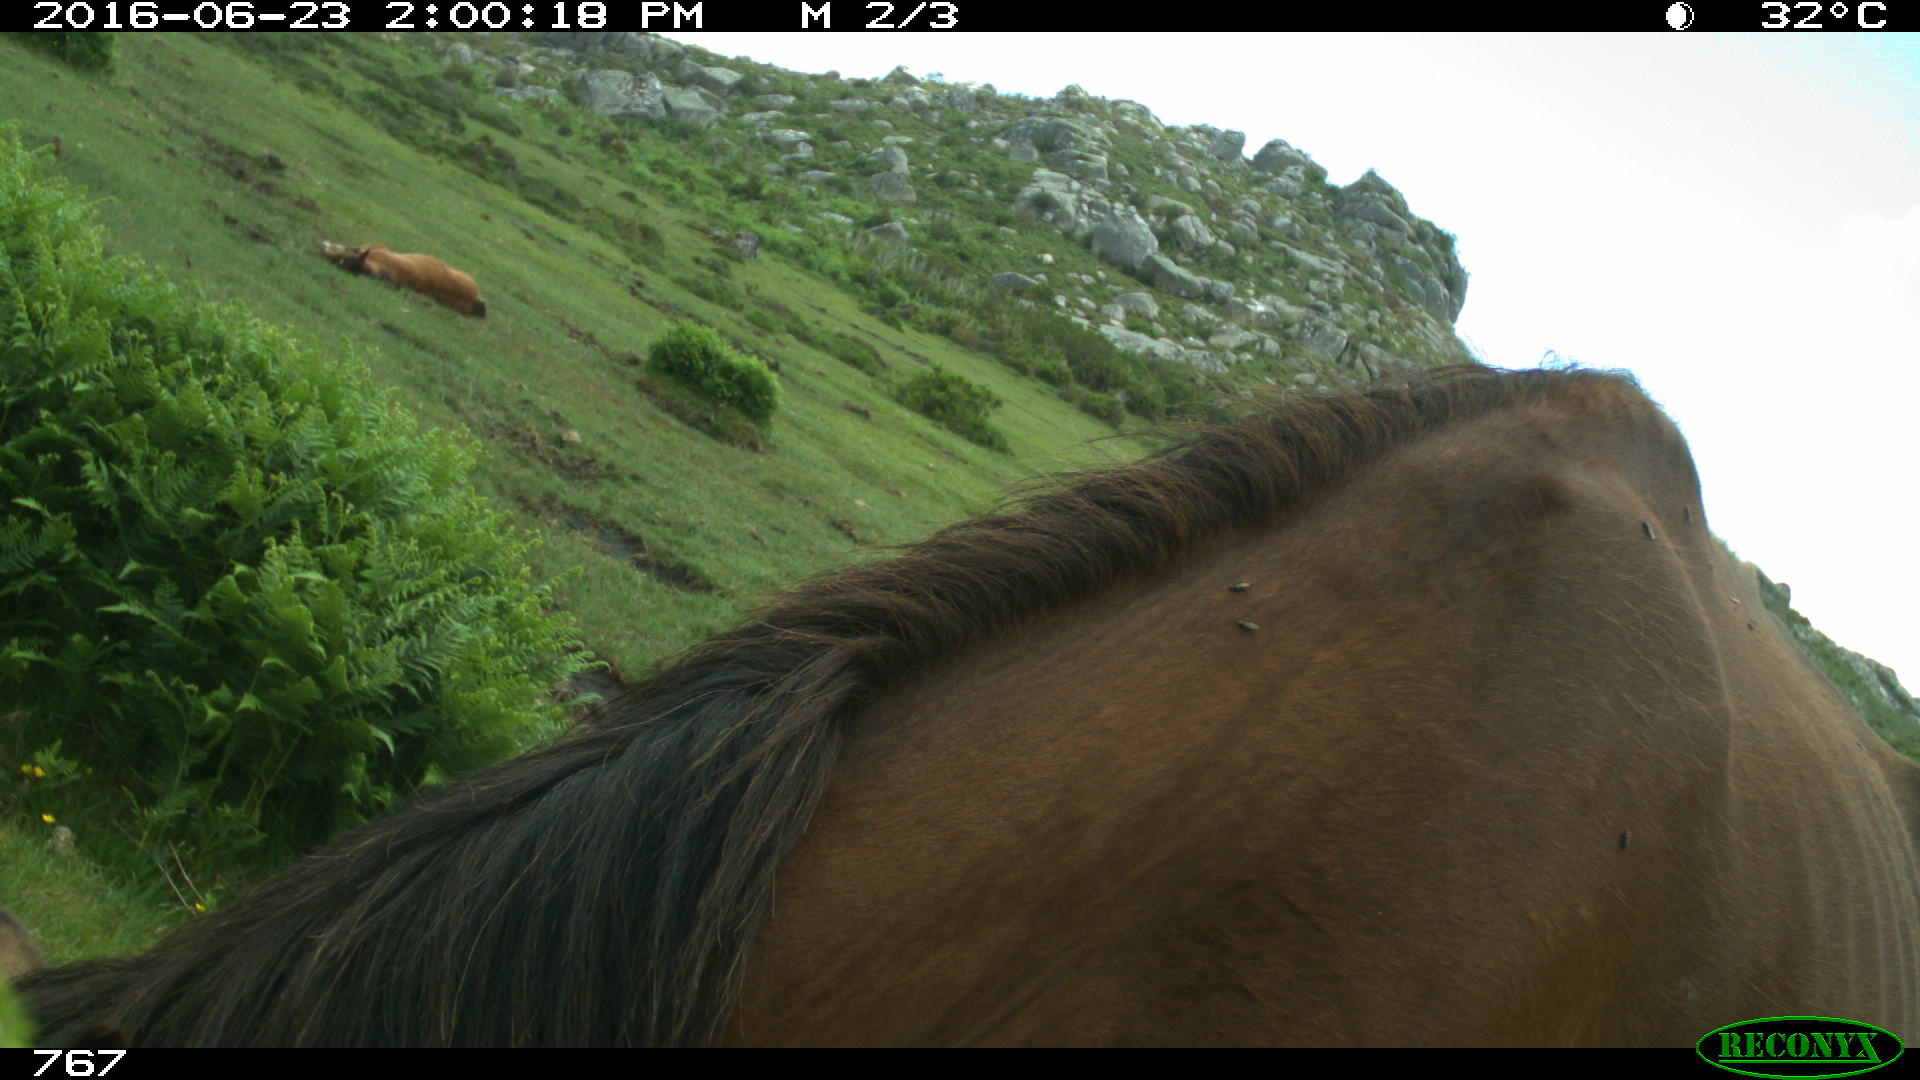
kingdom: Animalia
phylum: Chordata
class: Mammalia
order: Perissodactyla
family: Equidae
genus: Equus
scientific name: Equus caballus
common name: Horse
